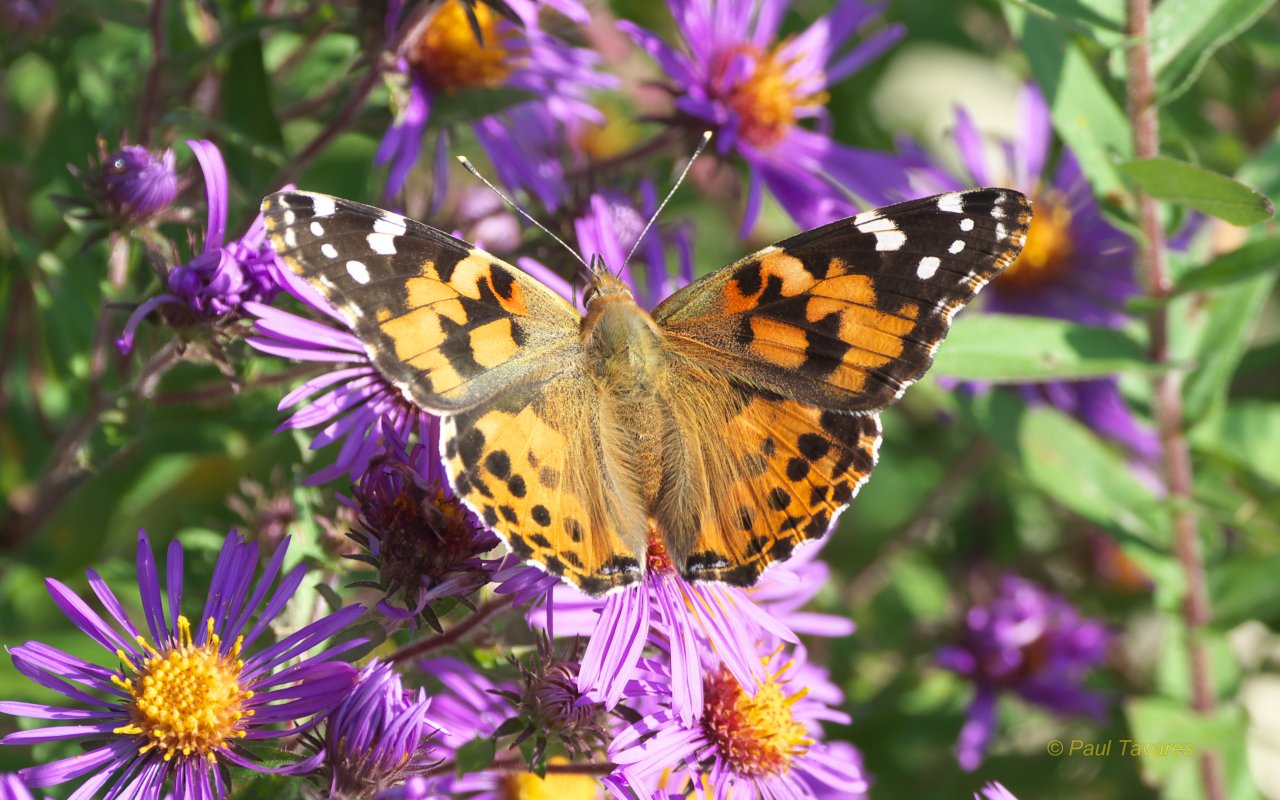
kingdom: Animalia
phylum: Arthropoda
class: Insecta
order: Lepidoptera
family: Nymphalidae
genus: Vanessa
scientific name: Vanessa cardui
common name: Painted Lady
